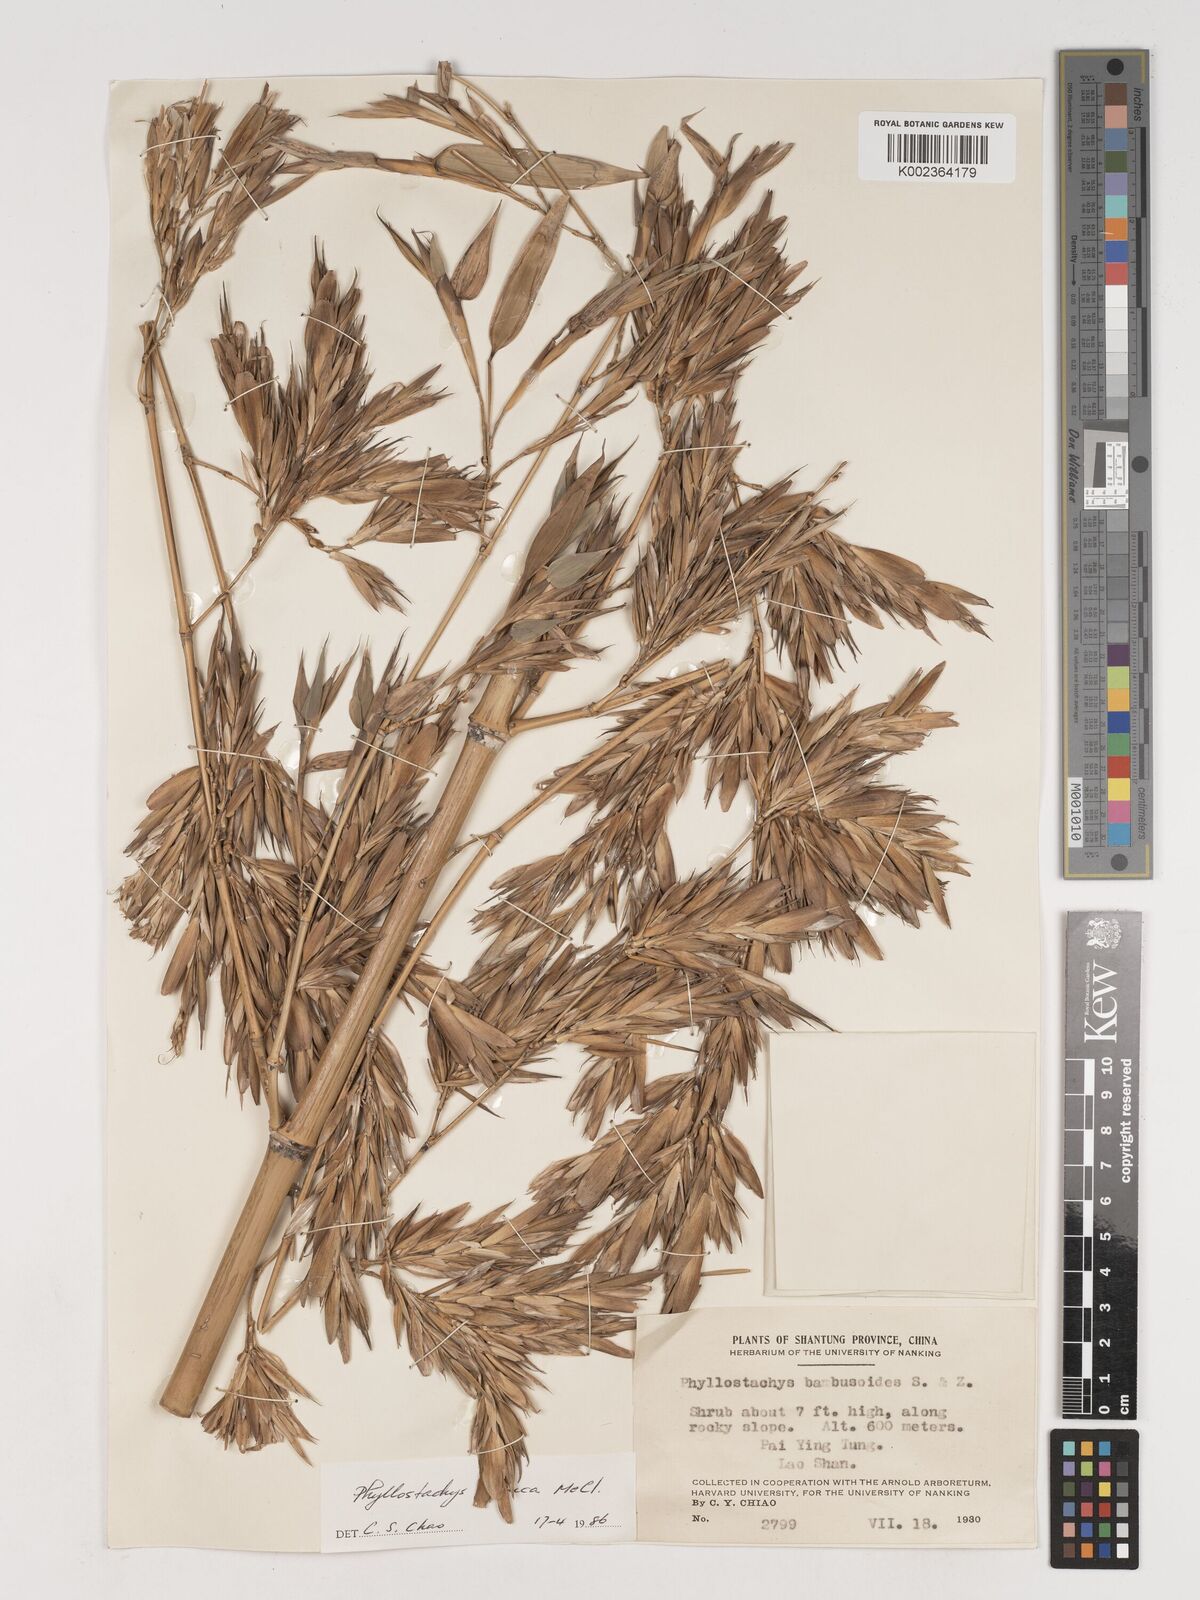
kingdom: Plantae
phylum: Tracheophyta
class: Liliopsida
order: Poales
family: Poaceae
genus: Phyllostachys
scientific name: Phyllostachys glauca
